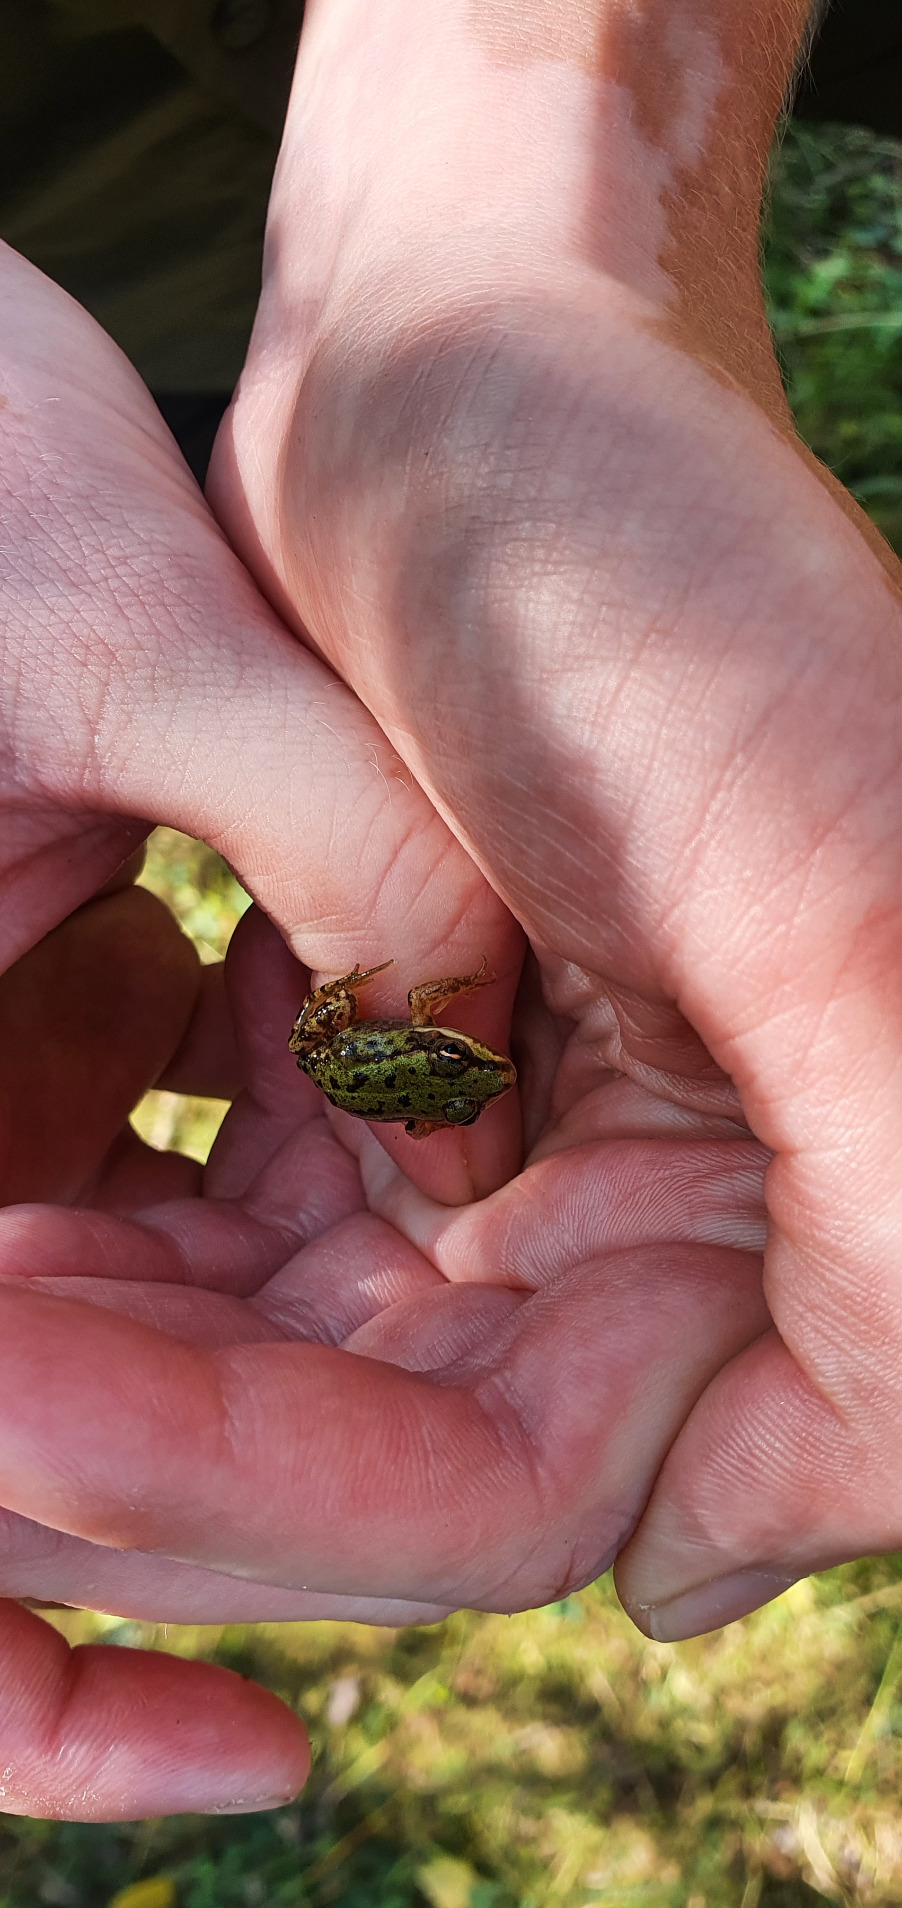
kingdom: Animalia
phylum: Chordata
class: Amphibia
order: Anura
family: Ranidae
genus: Pelophylax
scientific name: Pelophylax lessonae
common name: Grøn frø
